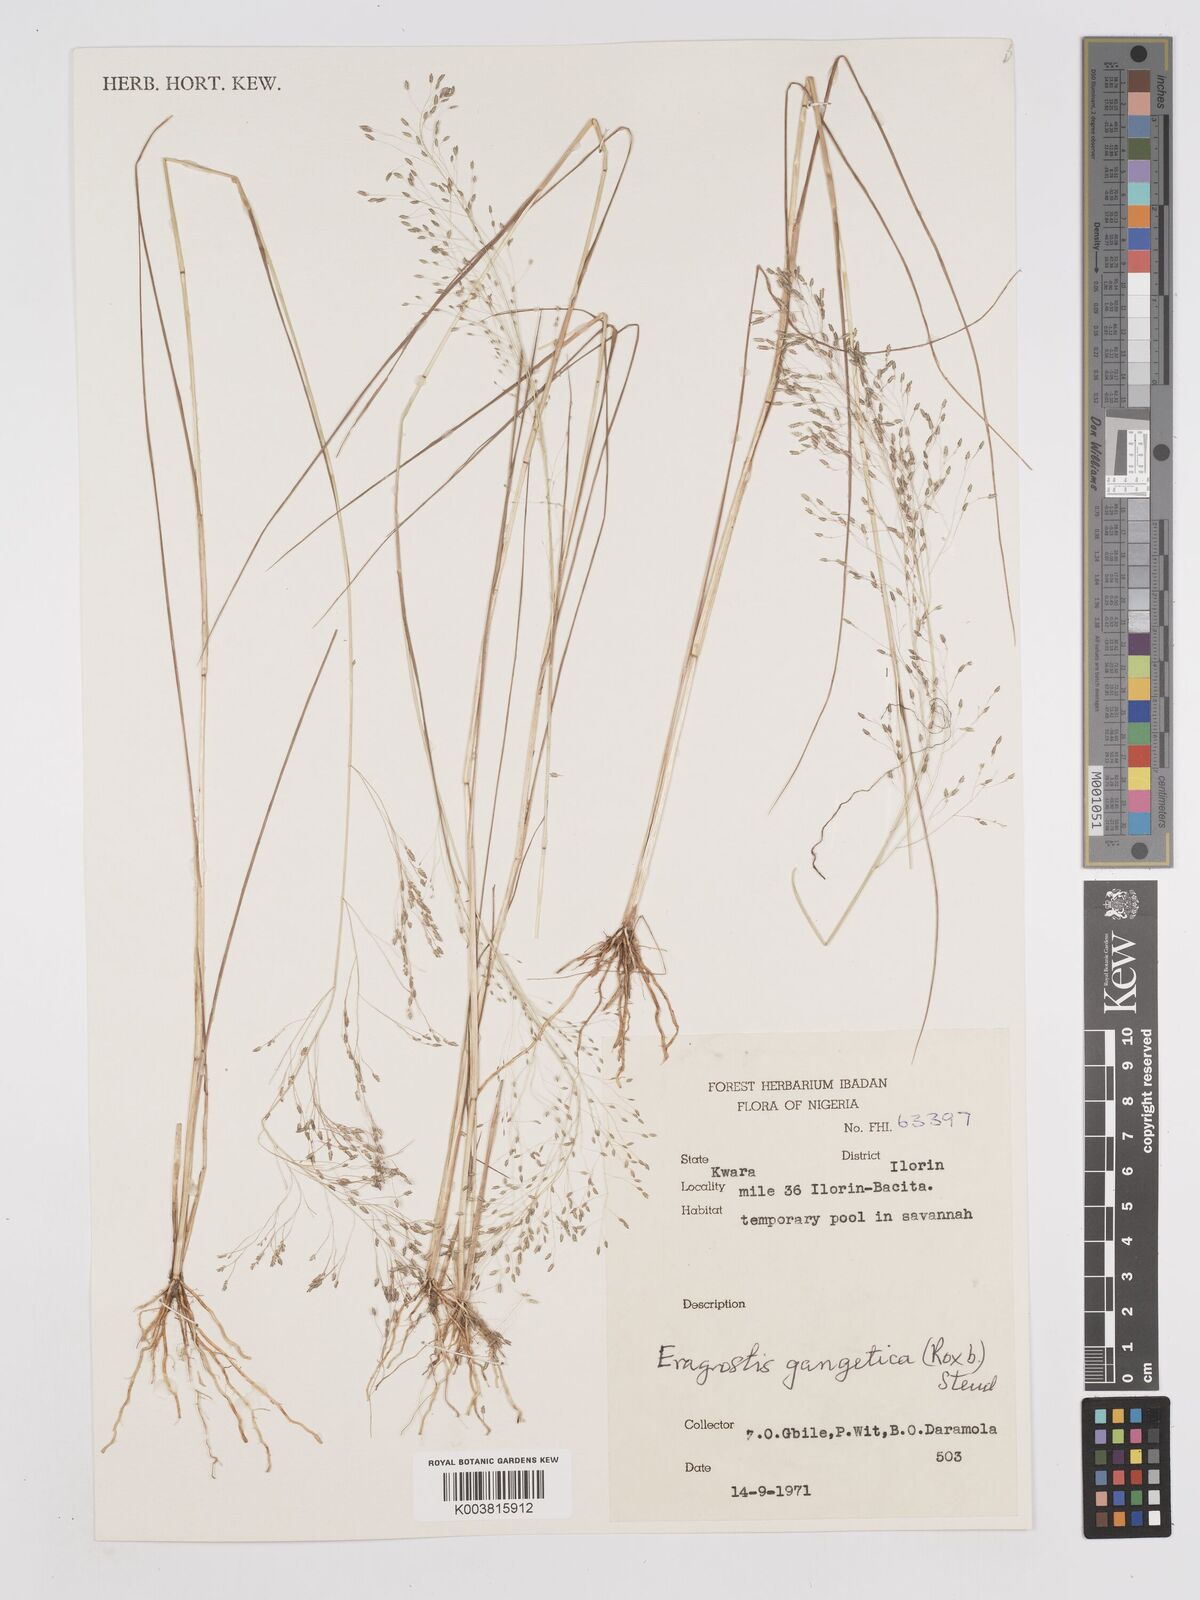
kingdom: Plantae
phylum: Tracheophyta
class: Liliopsida
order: Poales
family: Poaceae
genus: Eragrostis
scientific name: Eragrostis gangetica
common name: Slimflower lovegrass
